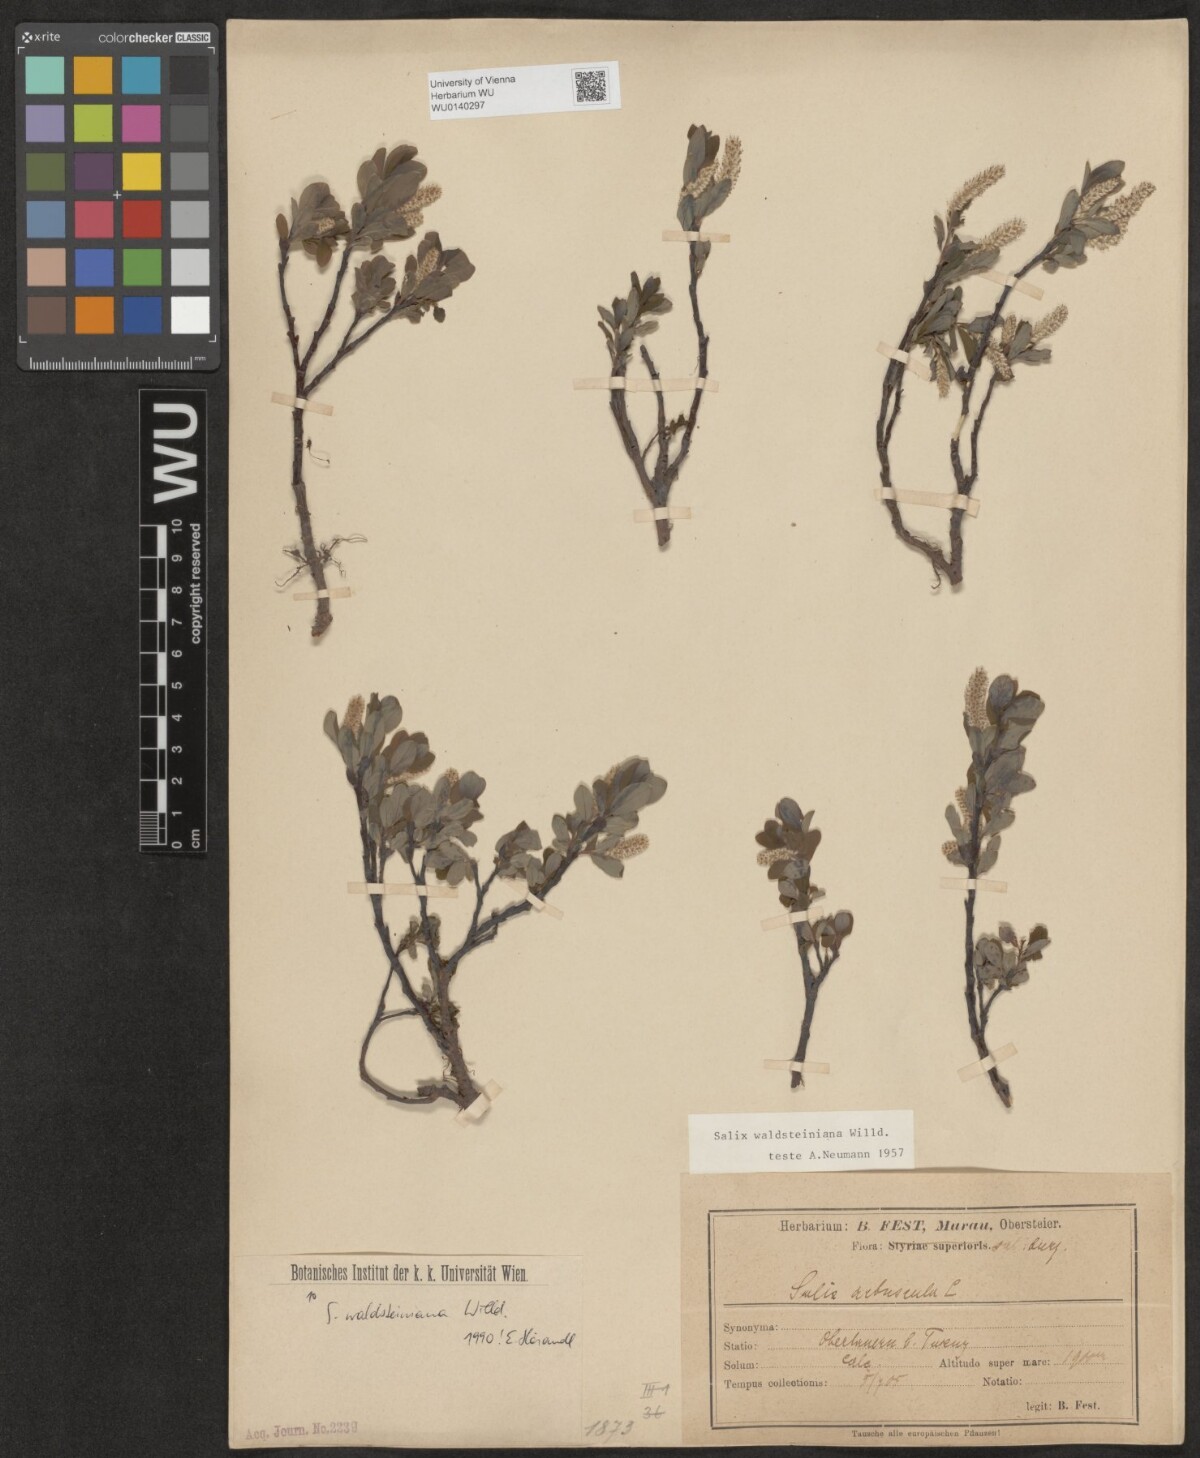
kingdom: Plantae
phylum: Tracheophyta
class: Magnoliopsida
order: Malpighiales
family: Salicaceae
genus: Salix
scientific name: Salix waldsteiniana
